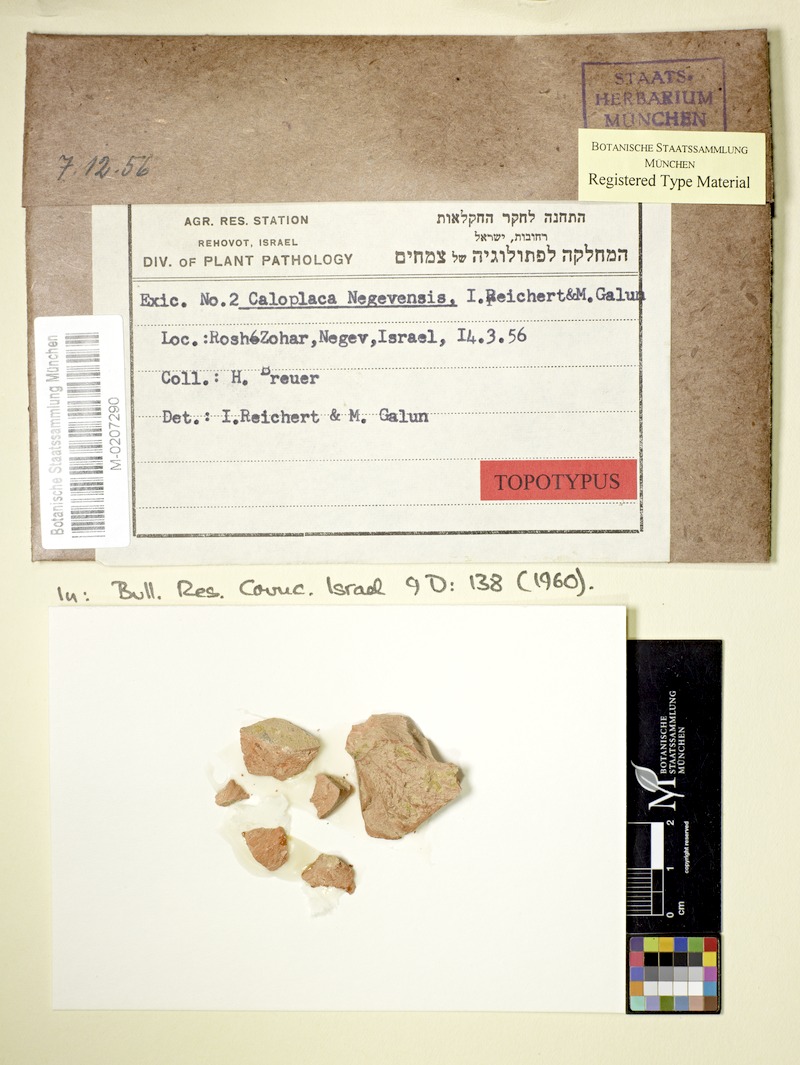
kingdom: Fungi
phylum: Ascomycota
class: Lecanoromycetes
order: Teloschistales
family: Teloschistaceae
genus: Caloplaca
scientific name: Caloplaca
